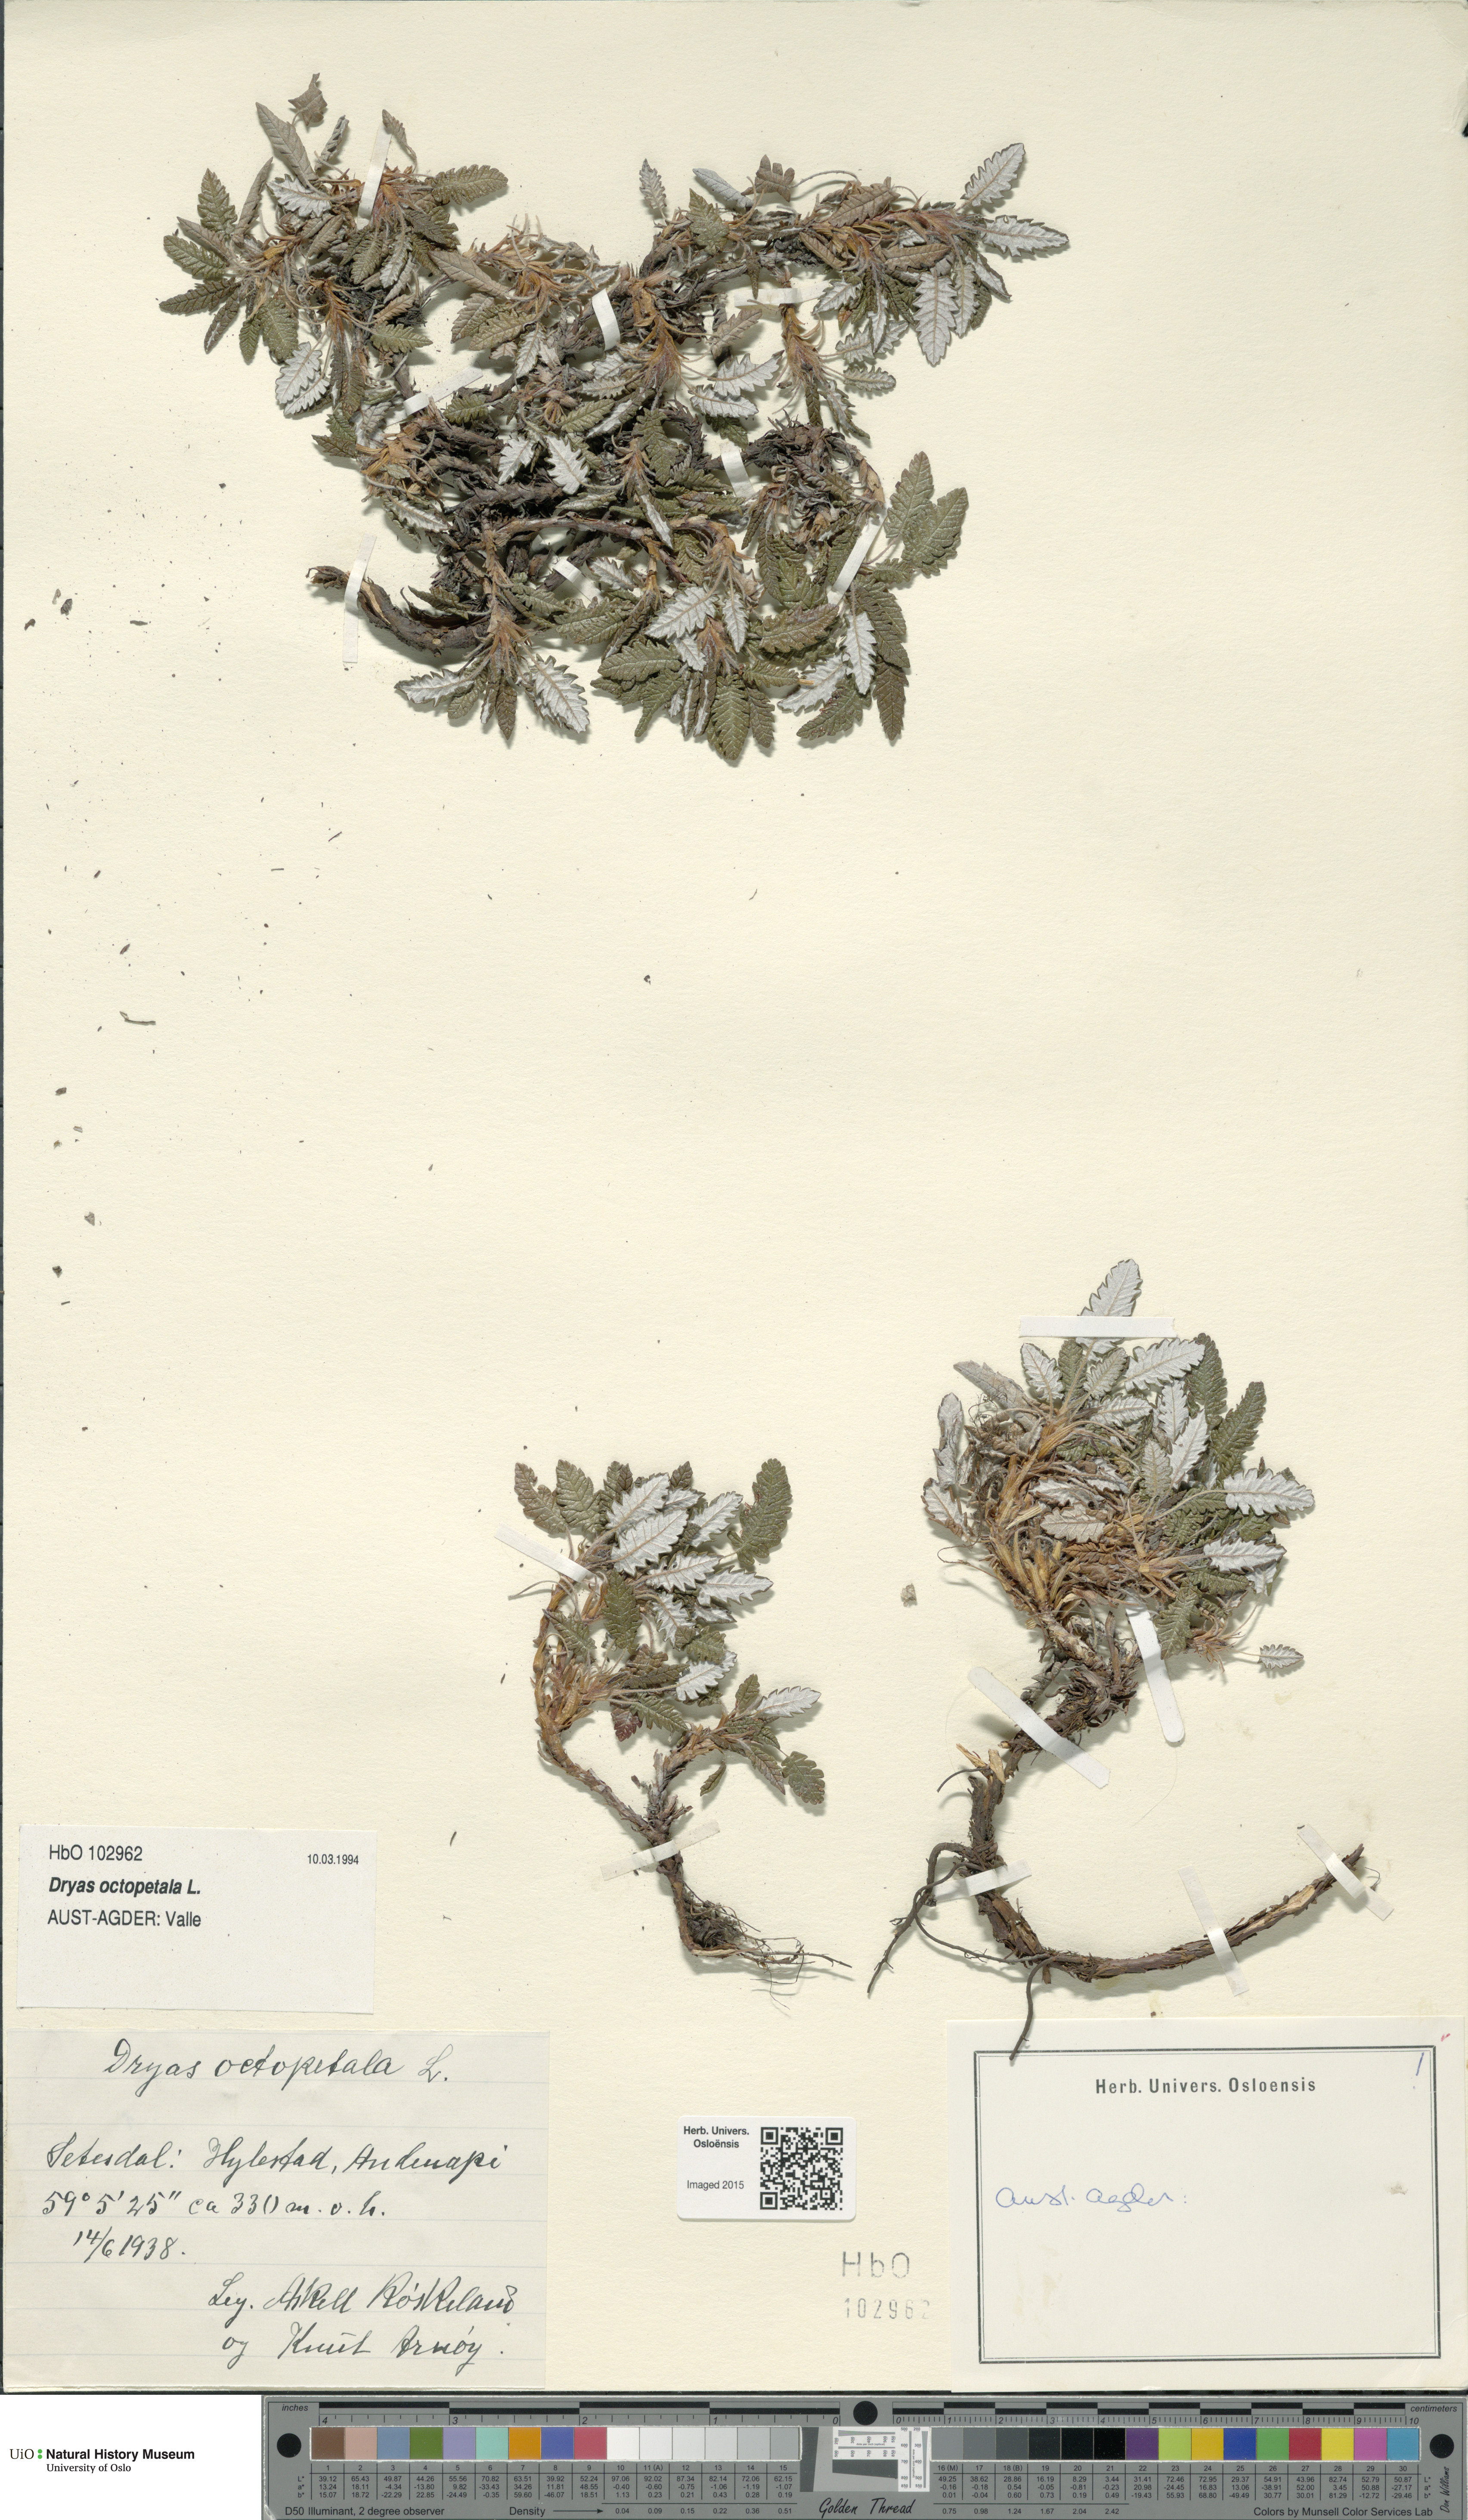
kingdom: Plantae
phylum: Tracheophyta
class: Magnoliopsida
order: Rosales
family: Rosaceae
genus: Dryas
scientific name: Dryas octopetala
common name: Eight-petal mountain-avens
